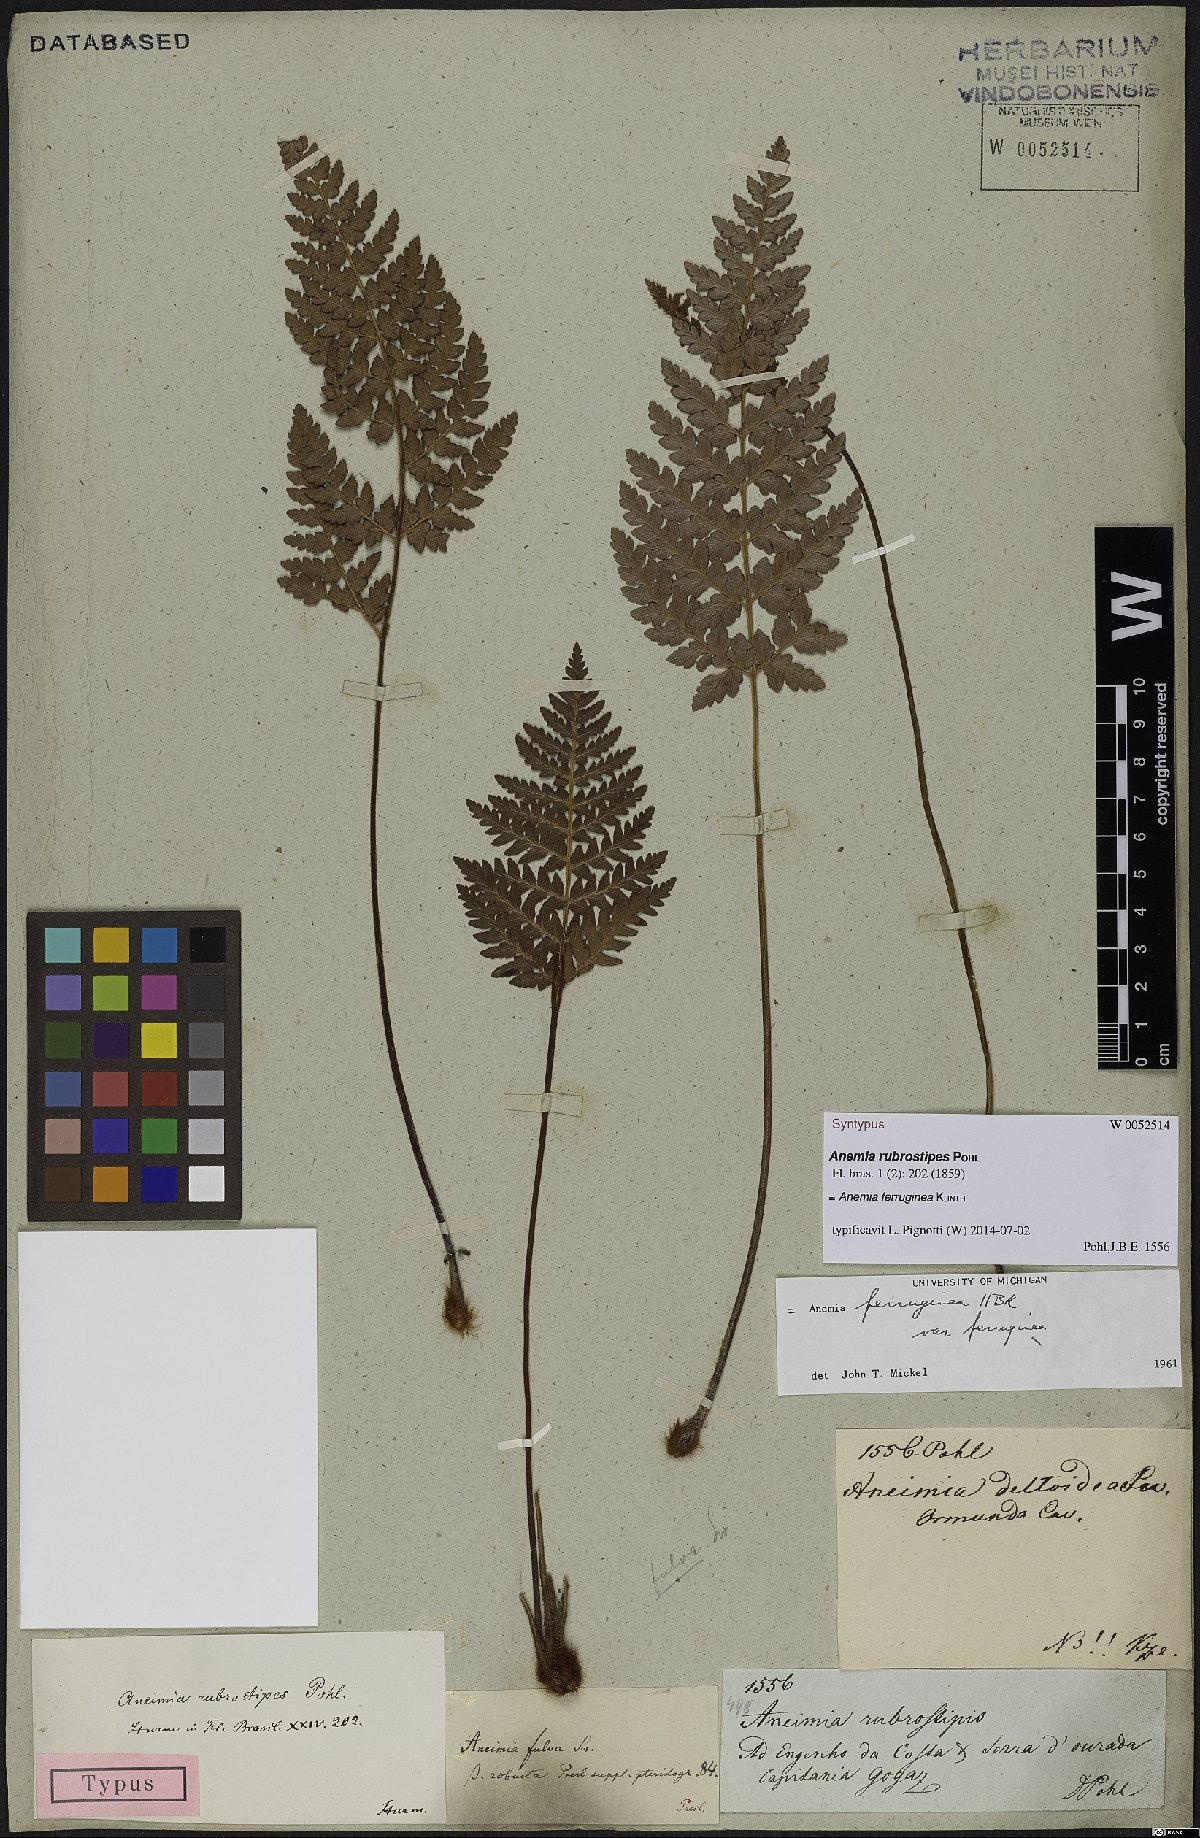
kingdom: Plantae
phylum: Tracheophyta
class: Polypodiopsida
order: Schizaeales
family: Anemiaceae
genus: Anemia
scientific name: Anemia ferruginea
